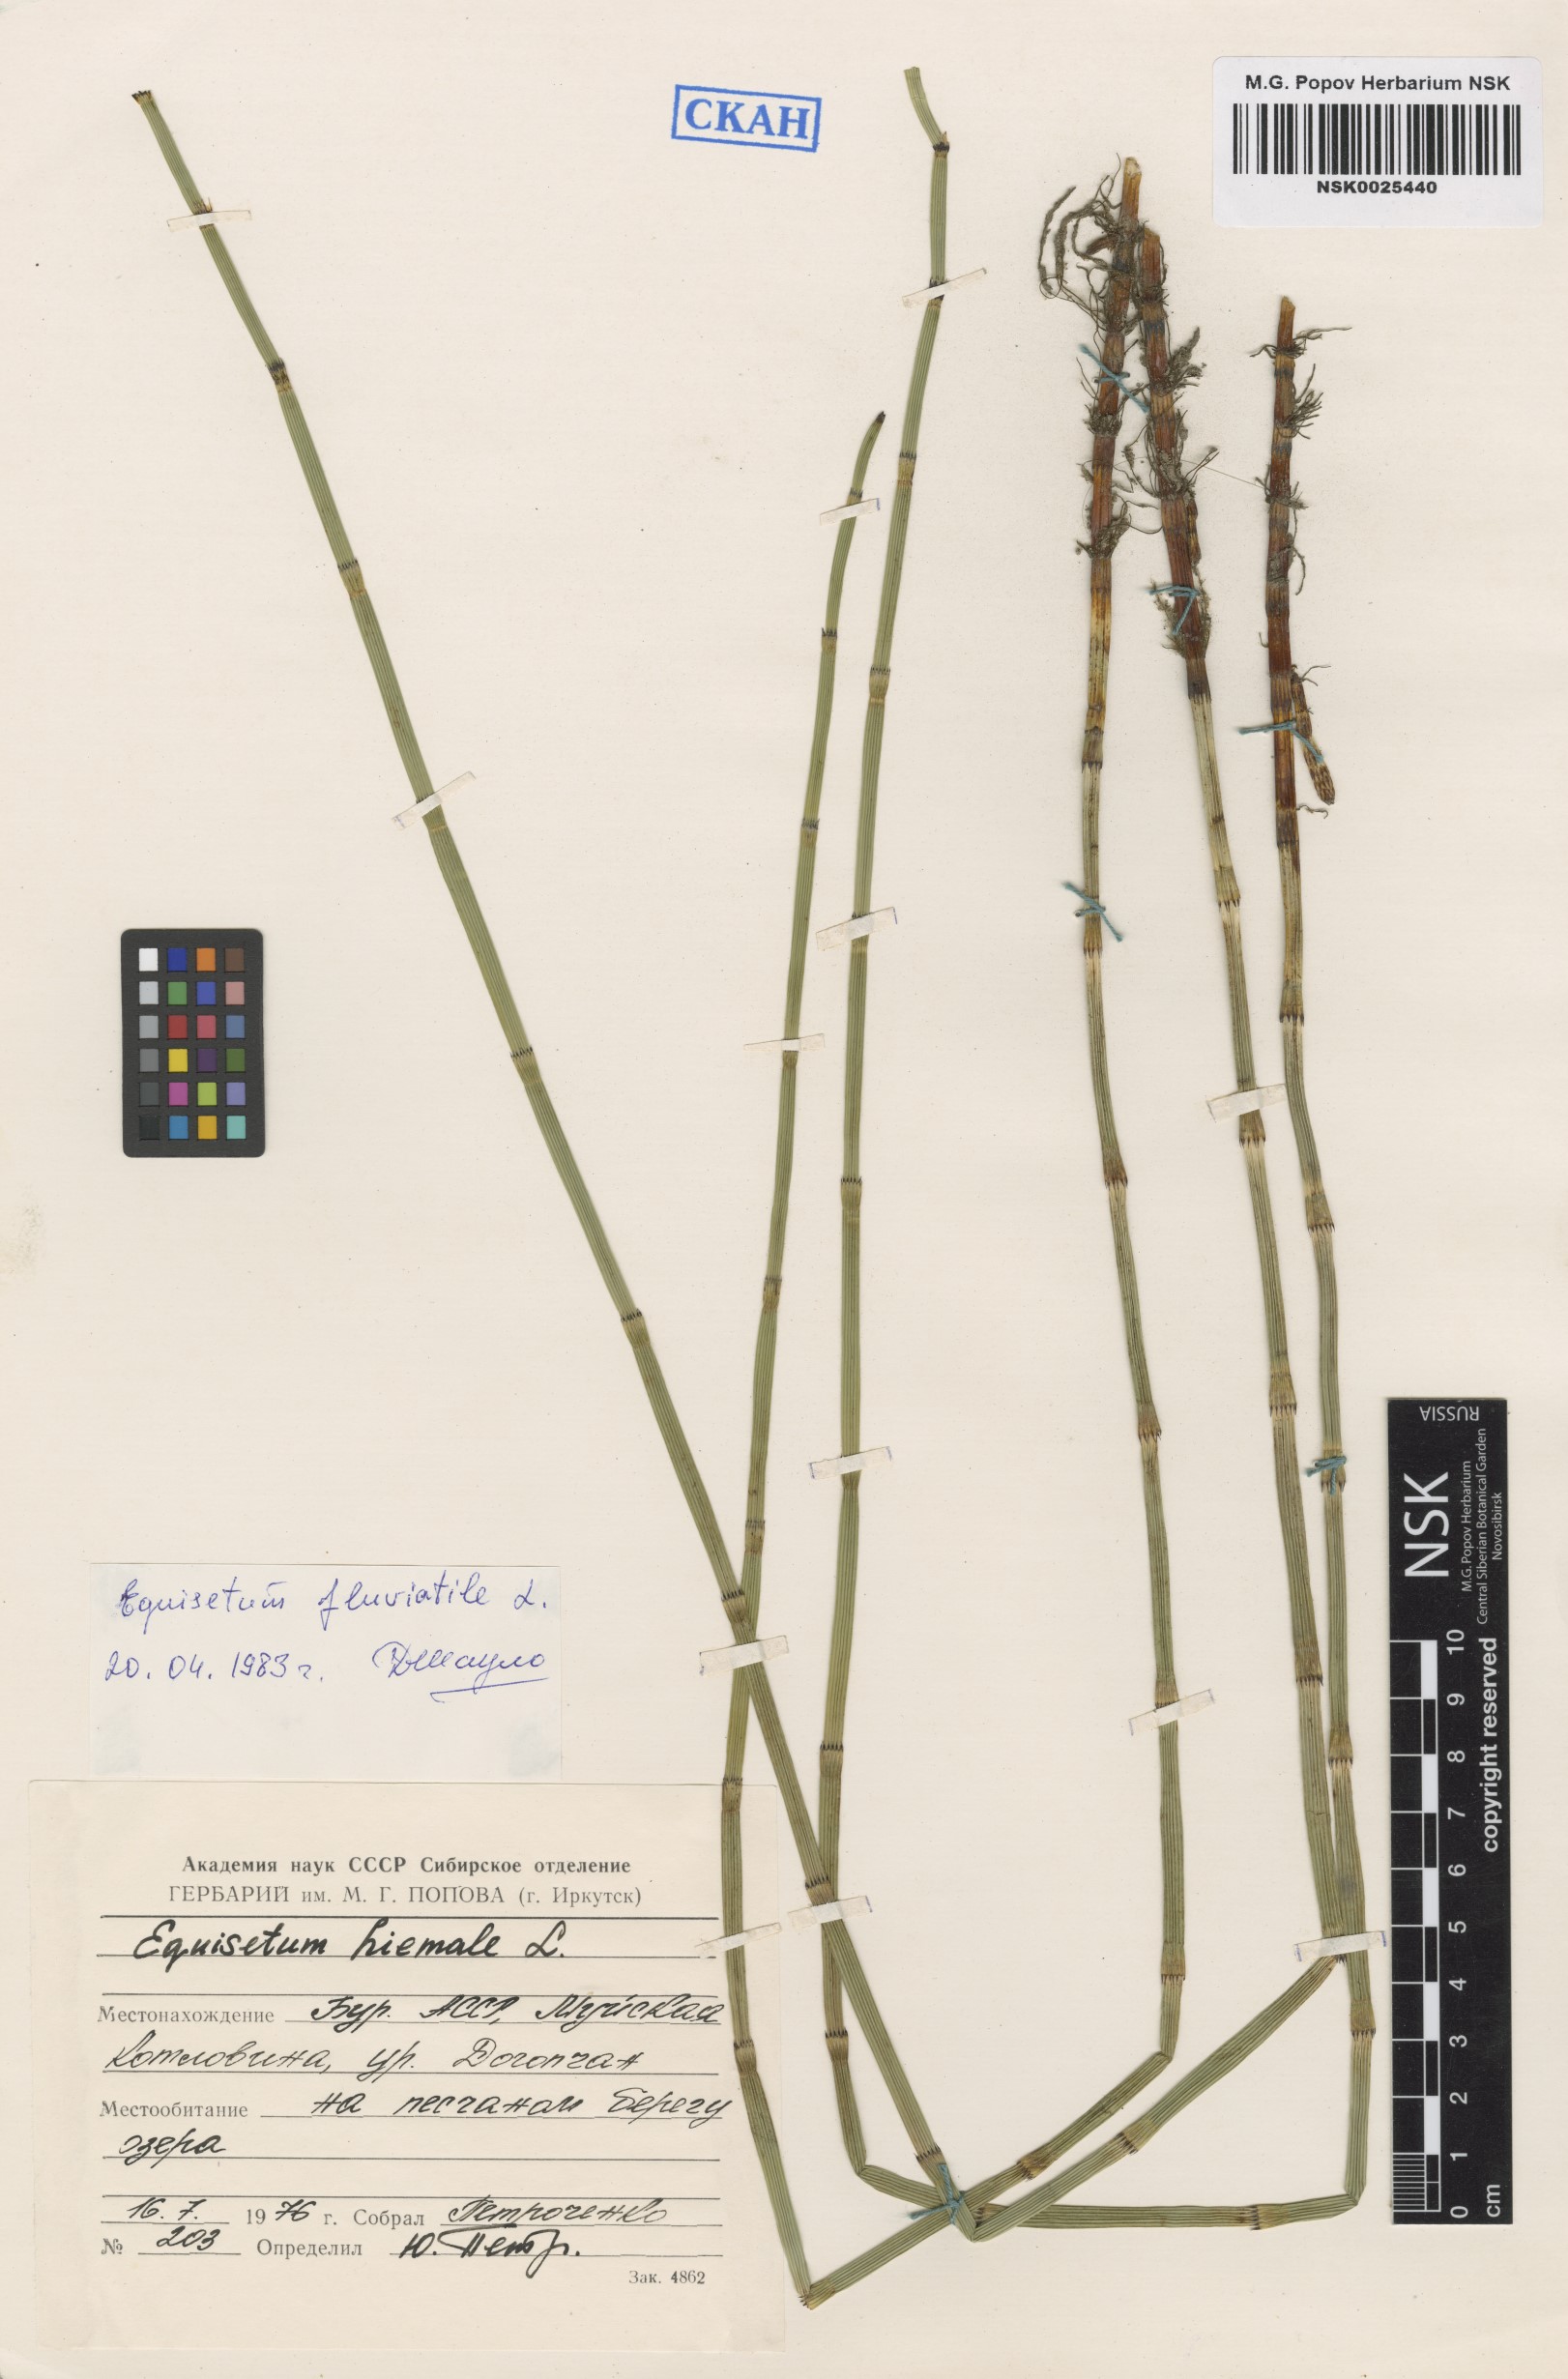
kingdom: Plantae
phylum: Tracheophyta
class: Polypodiopsida
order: Equisetales
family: Equisetaceae
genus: Equisetum
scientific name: Equisetum fluviatile
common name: Water horsetail
